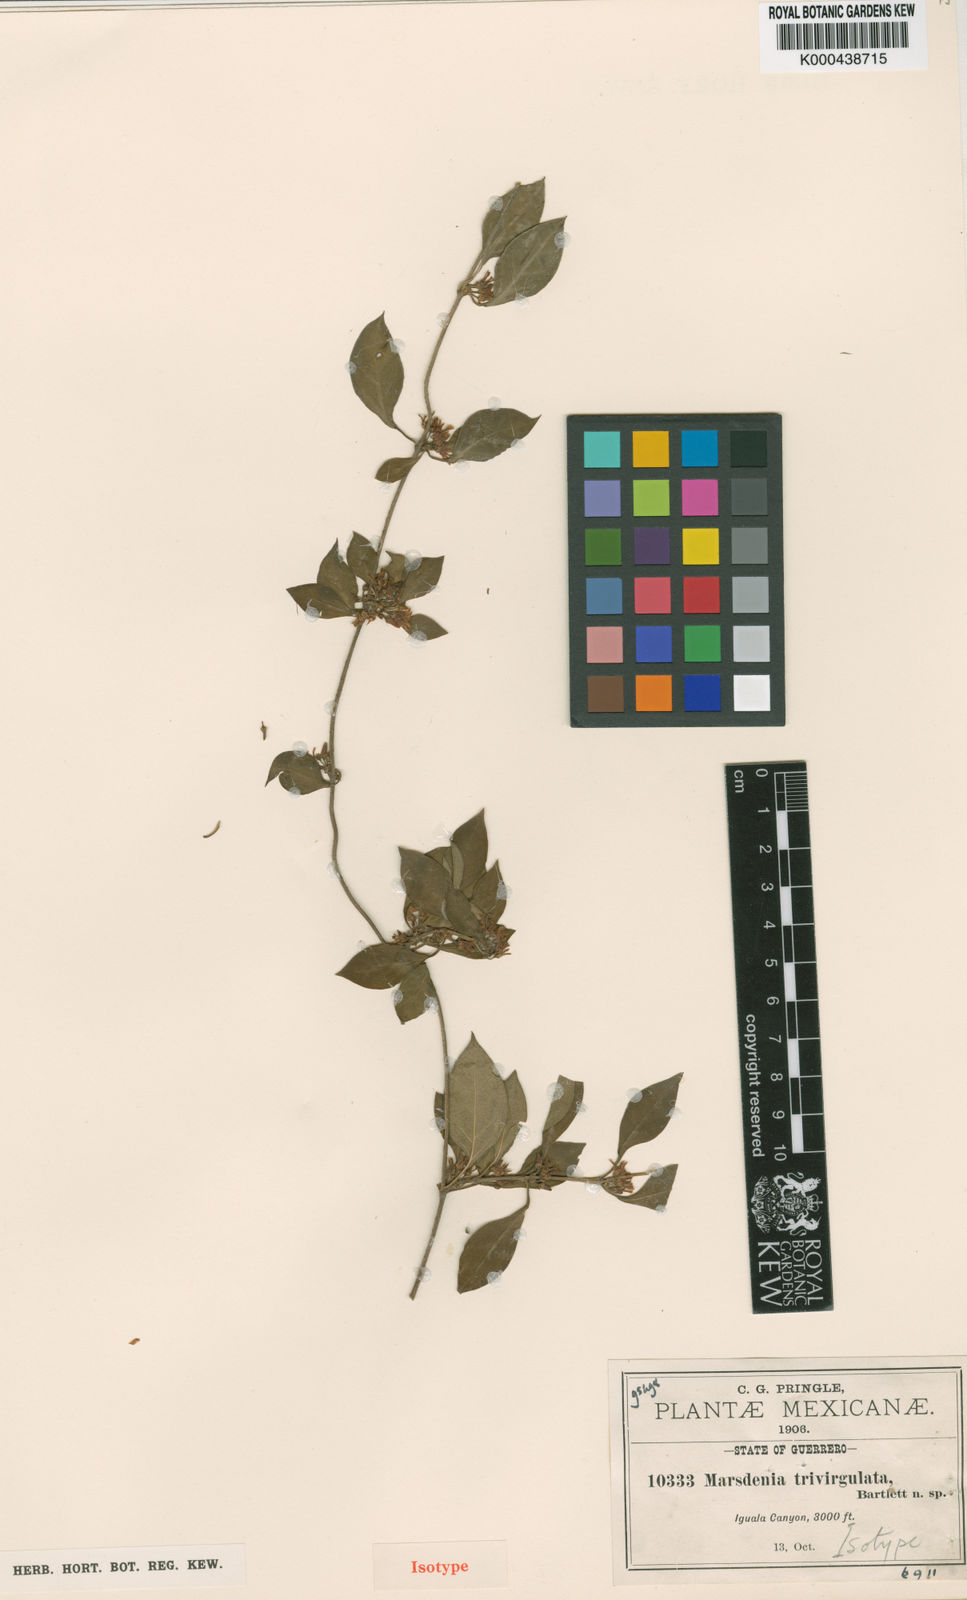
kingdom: Plantae
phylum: Tracheophyta
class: Magnoliopsida
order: Gentianales
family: Apocynaceae
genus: Ruehssia
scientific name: Ruehssia trivirgulata
